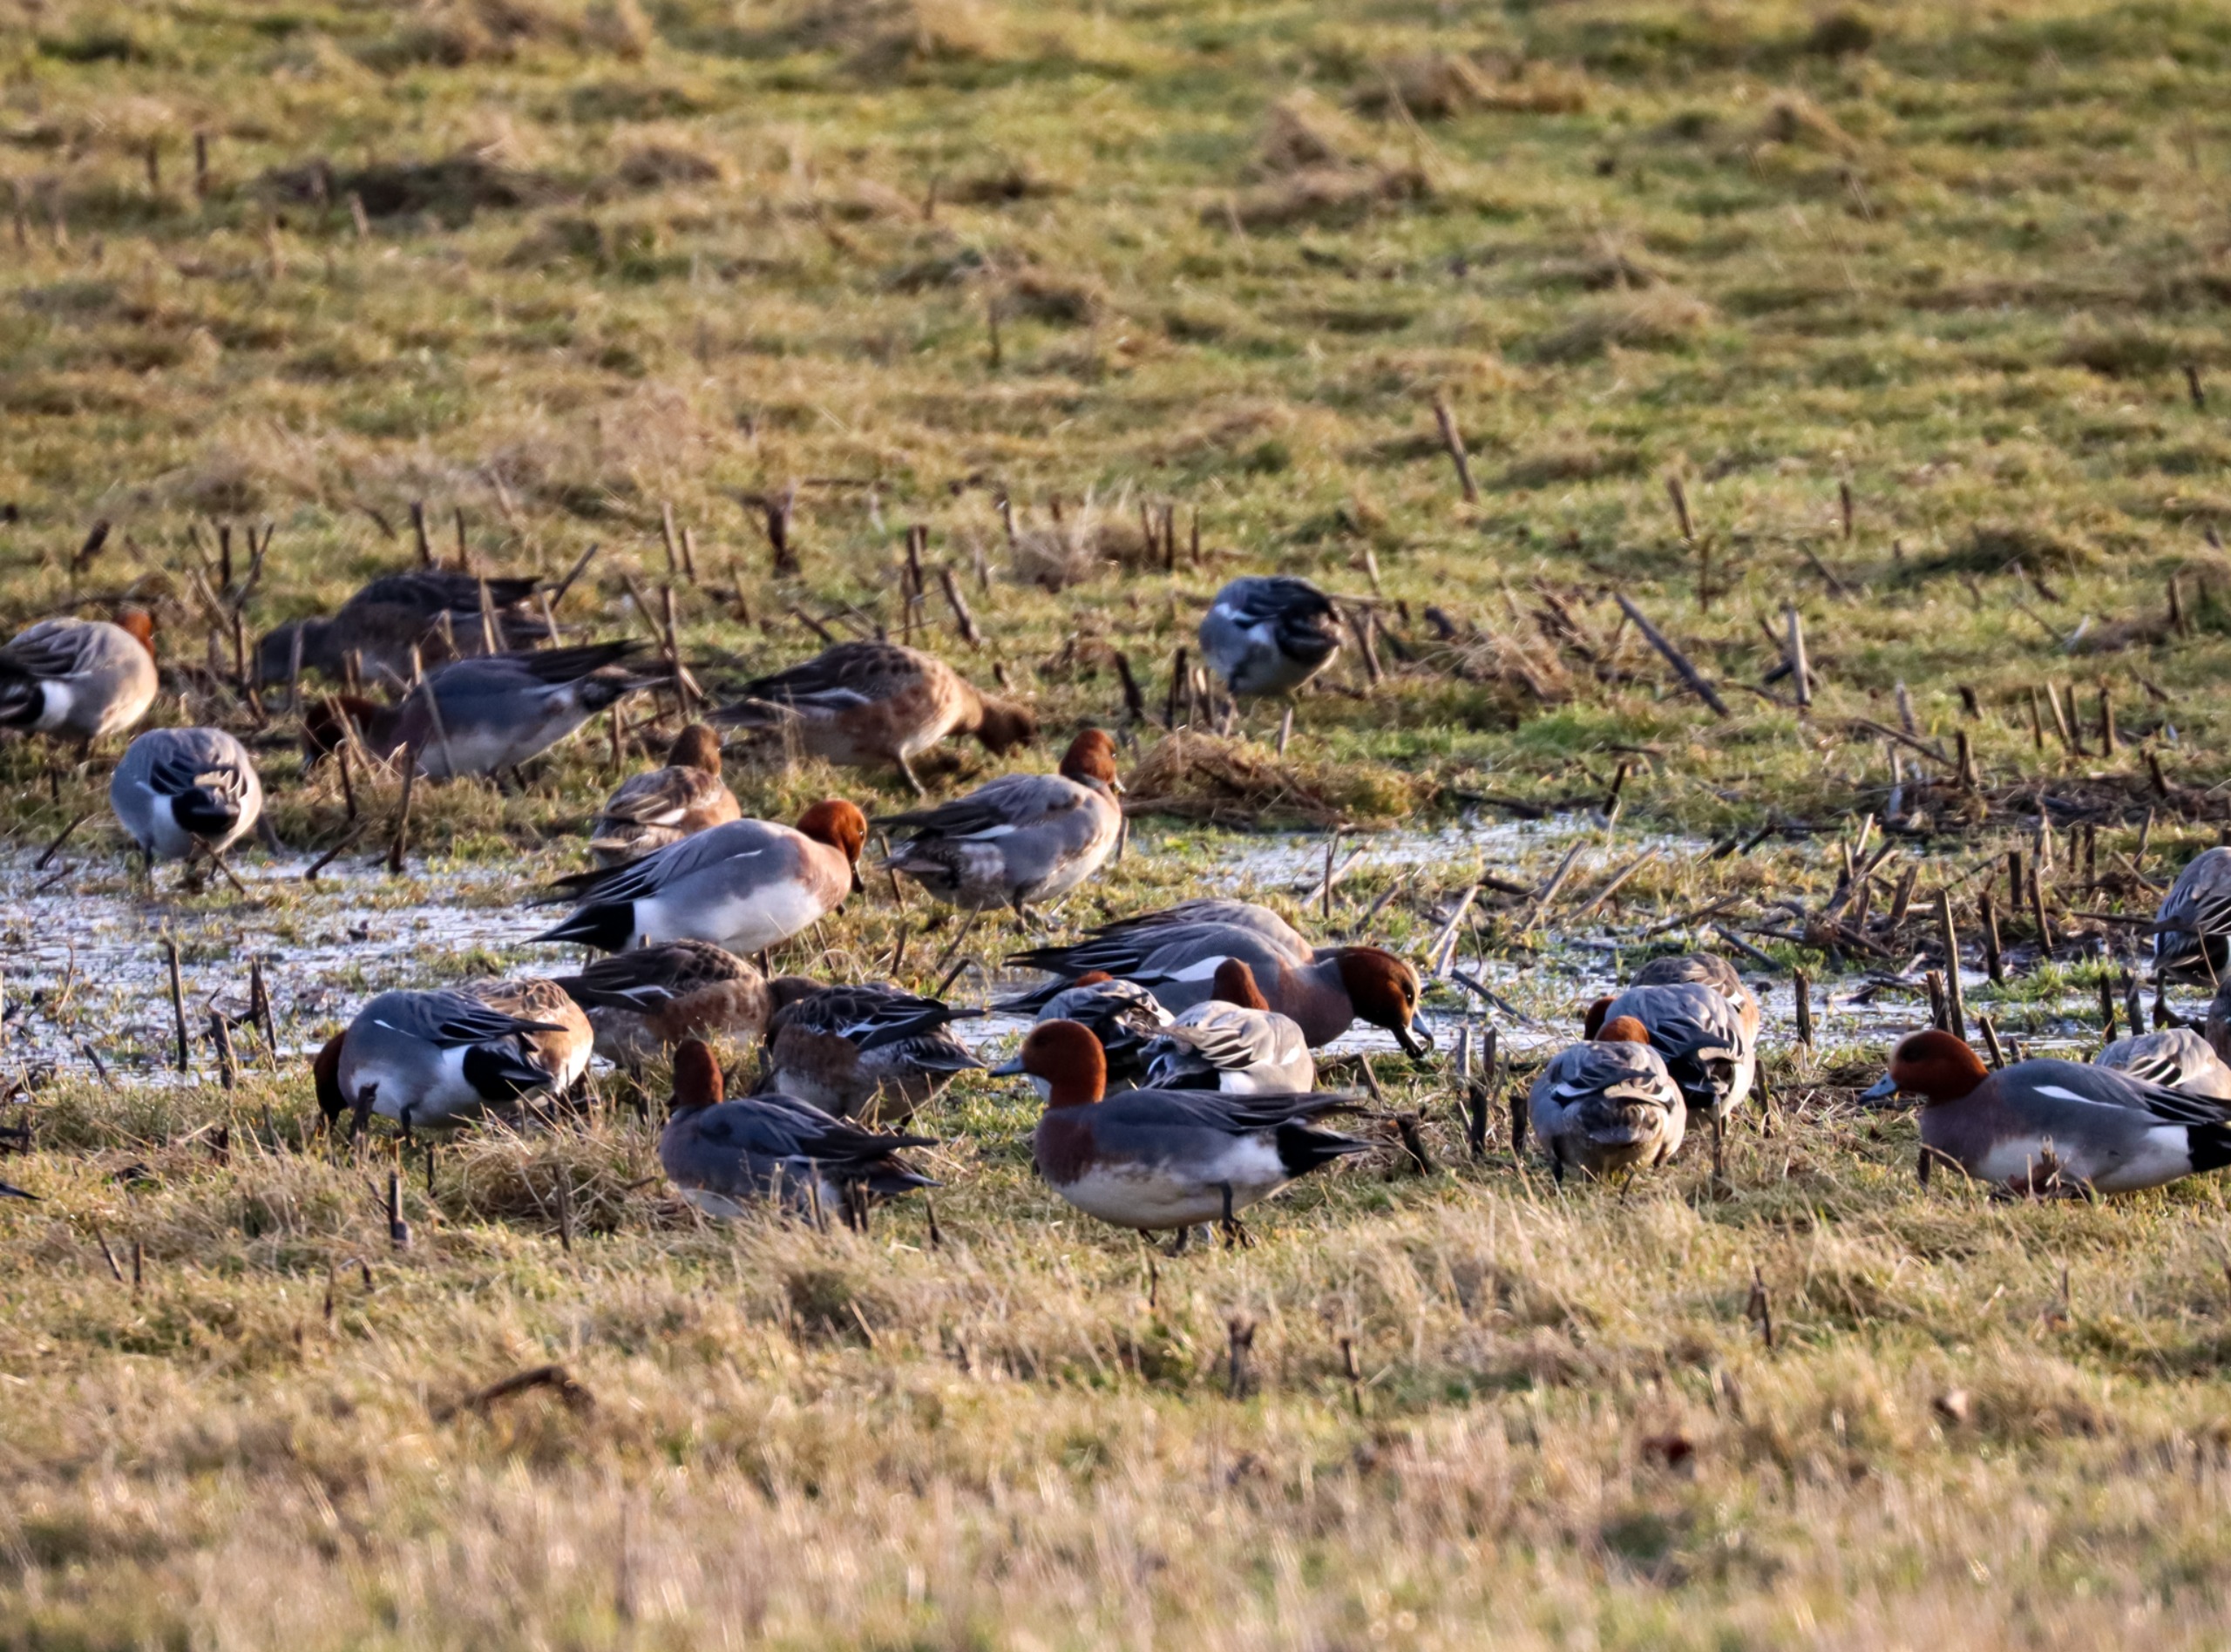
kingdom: Animalia
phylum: Chordata
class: Aves
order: Anseriformes
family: Anatidae
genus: Mareca
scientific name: Mareca penelope
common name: Pibeand
